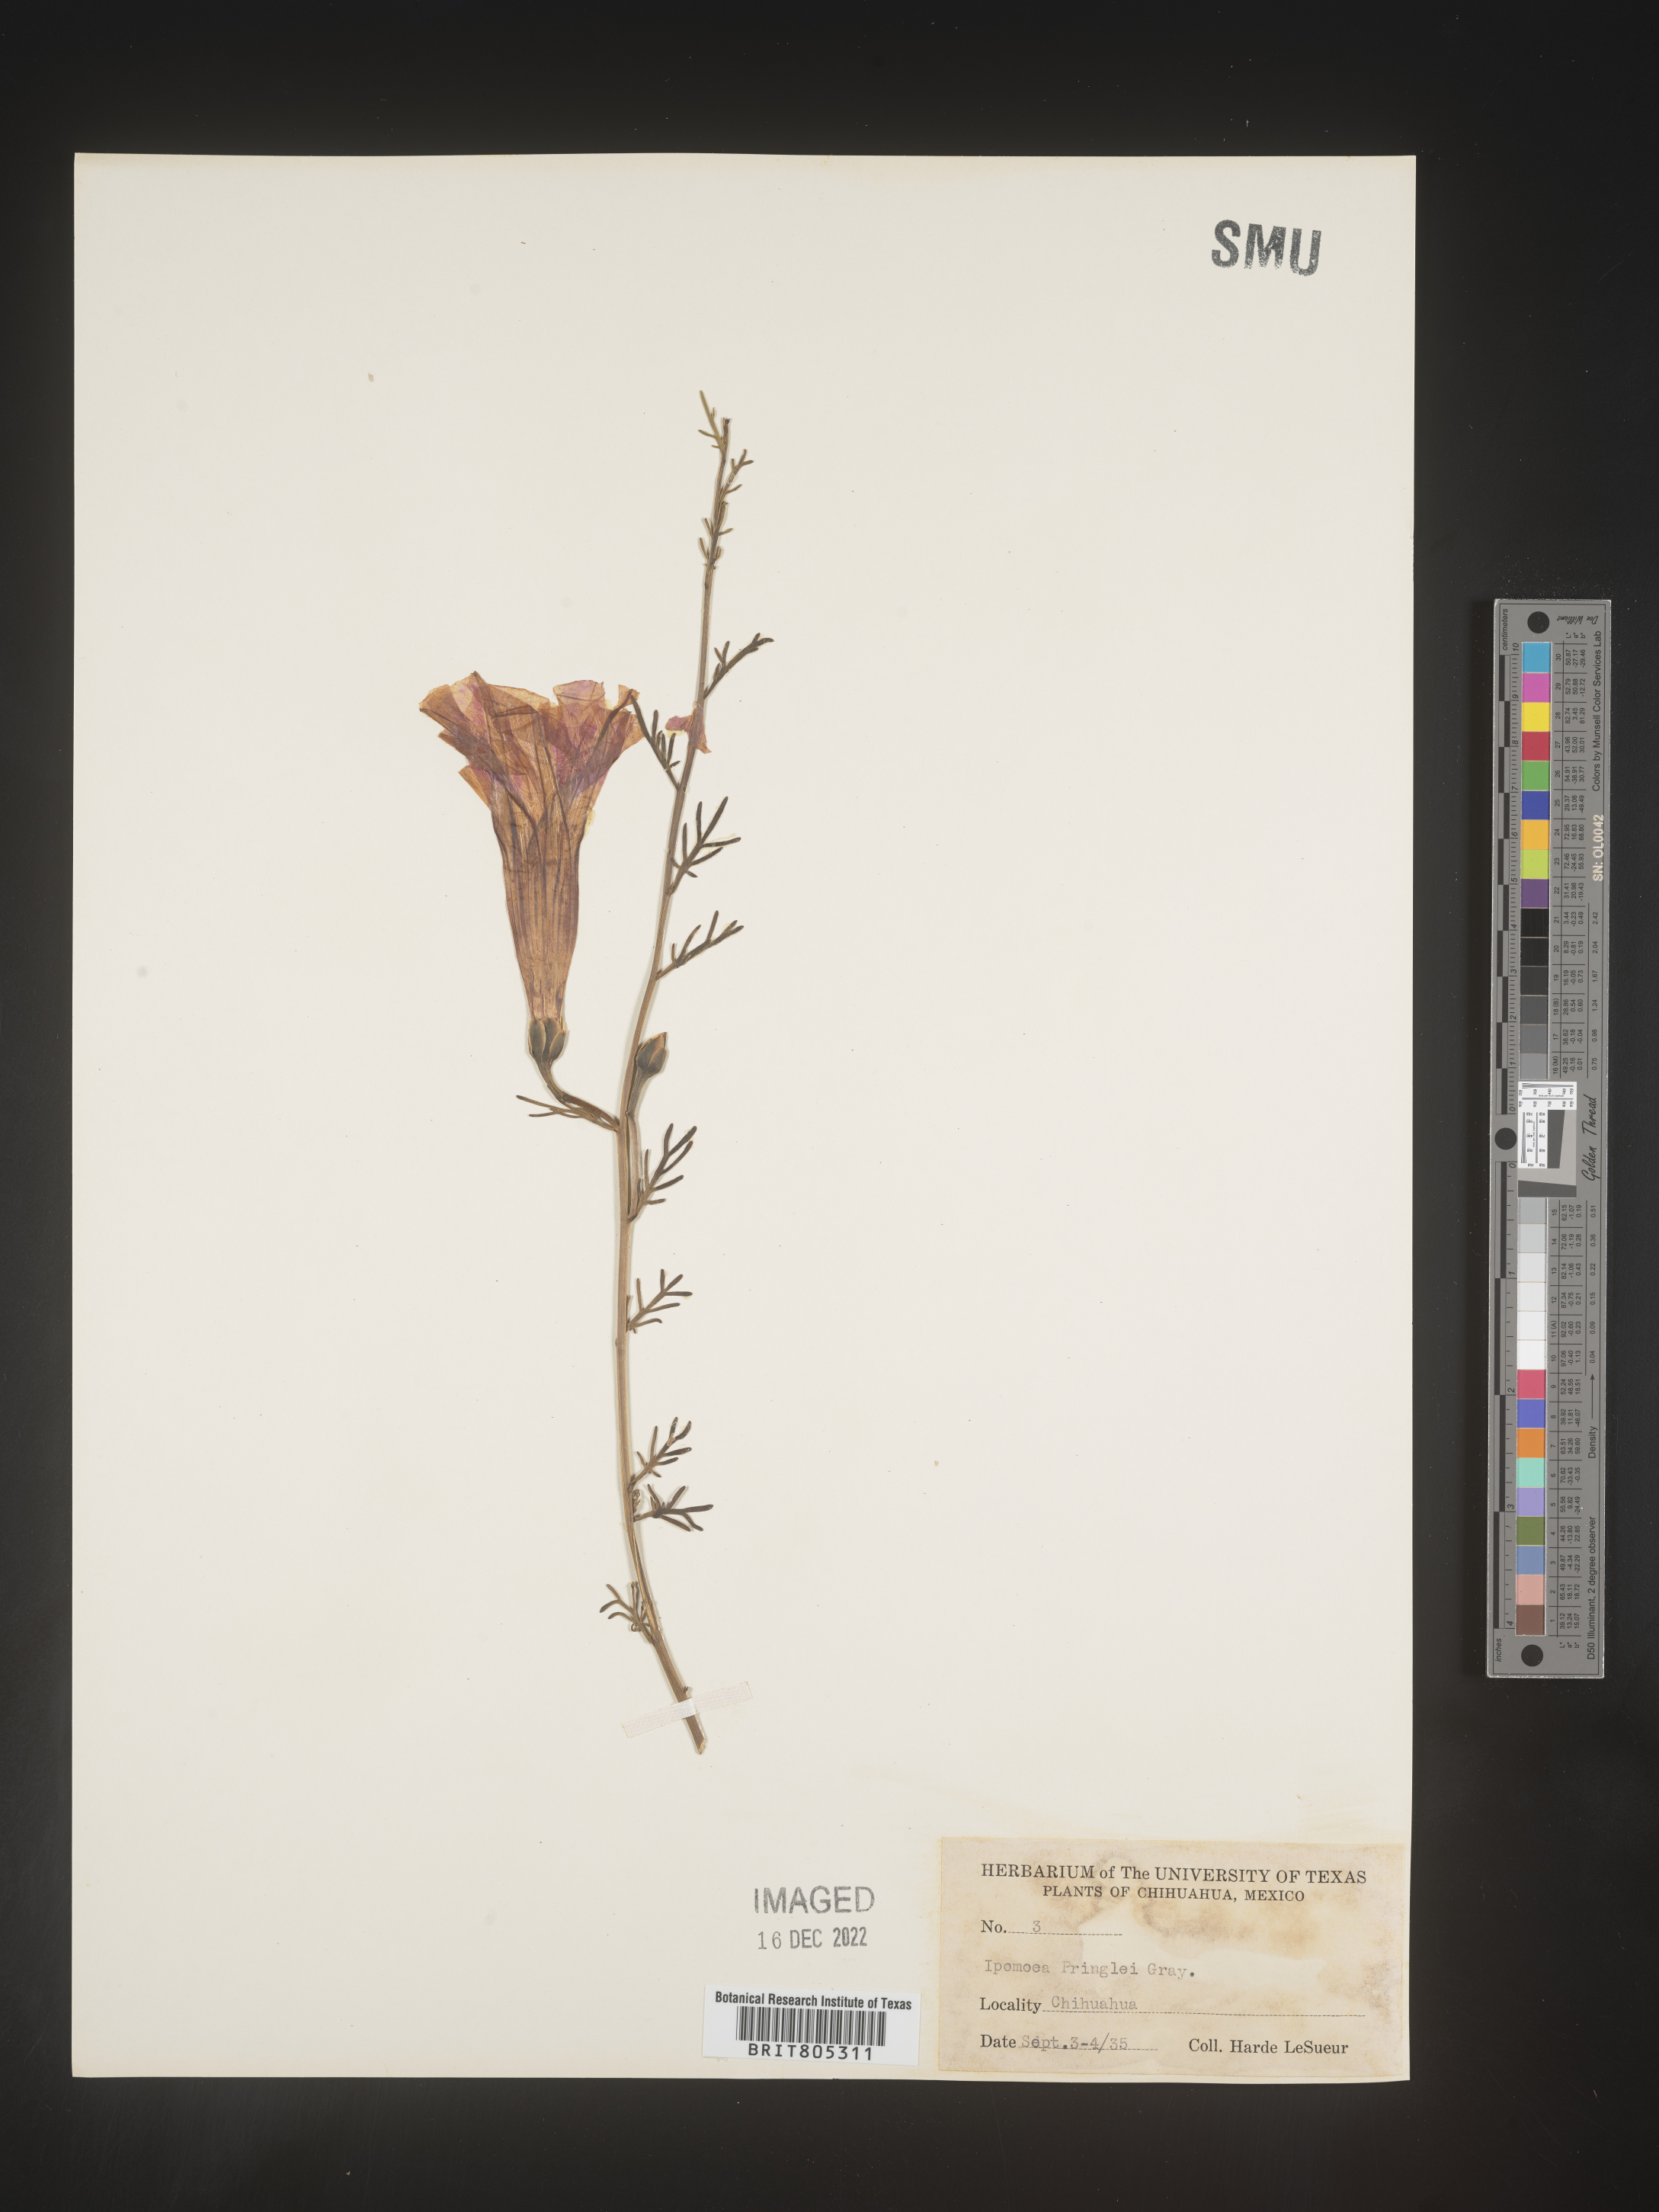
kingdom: Plantae
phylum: Tracheophyta
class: Magnoliopsida
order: Solanales
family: Convolvulaceae
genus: Ipomoea
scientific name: Ipomoea
